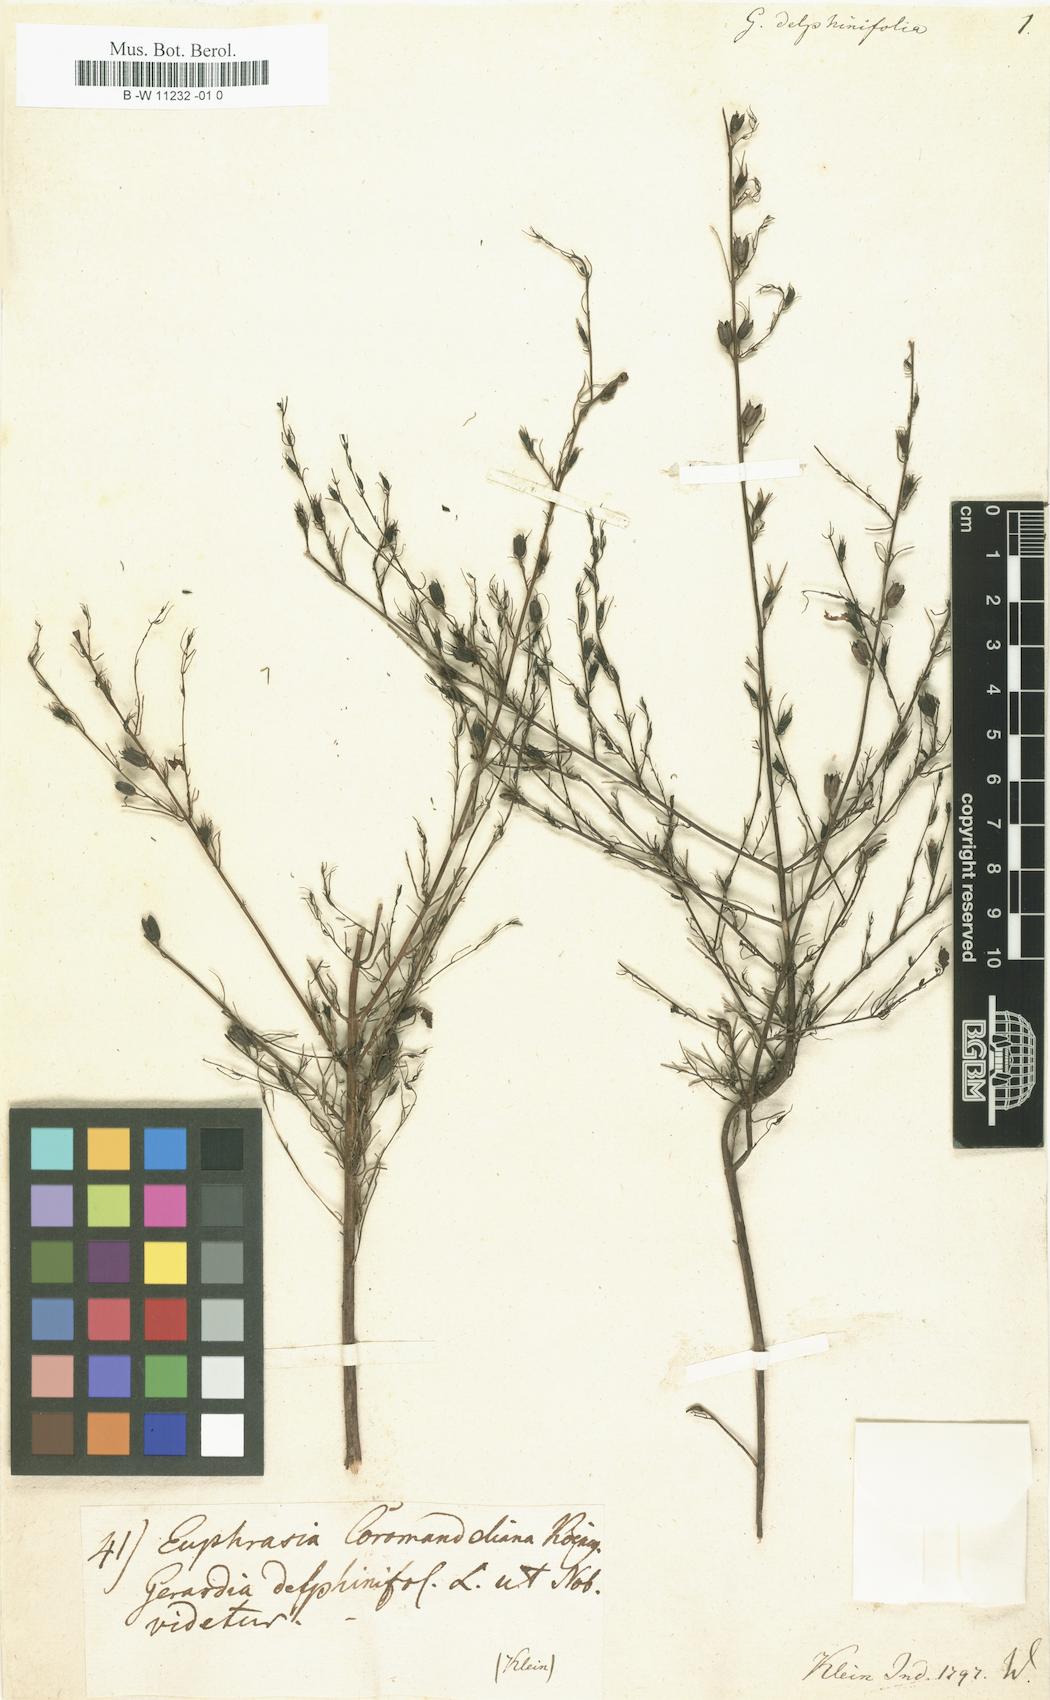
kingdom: Plantae
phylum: Tracheophyta
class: Magnoliopsida
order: Lamiales
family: Orobanchaceae
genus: Parasopubia
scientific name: Parasopubia delphiniifolia
